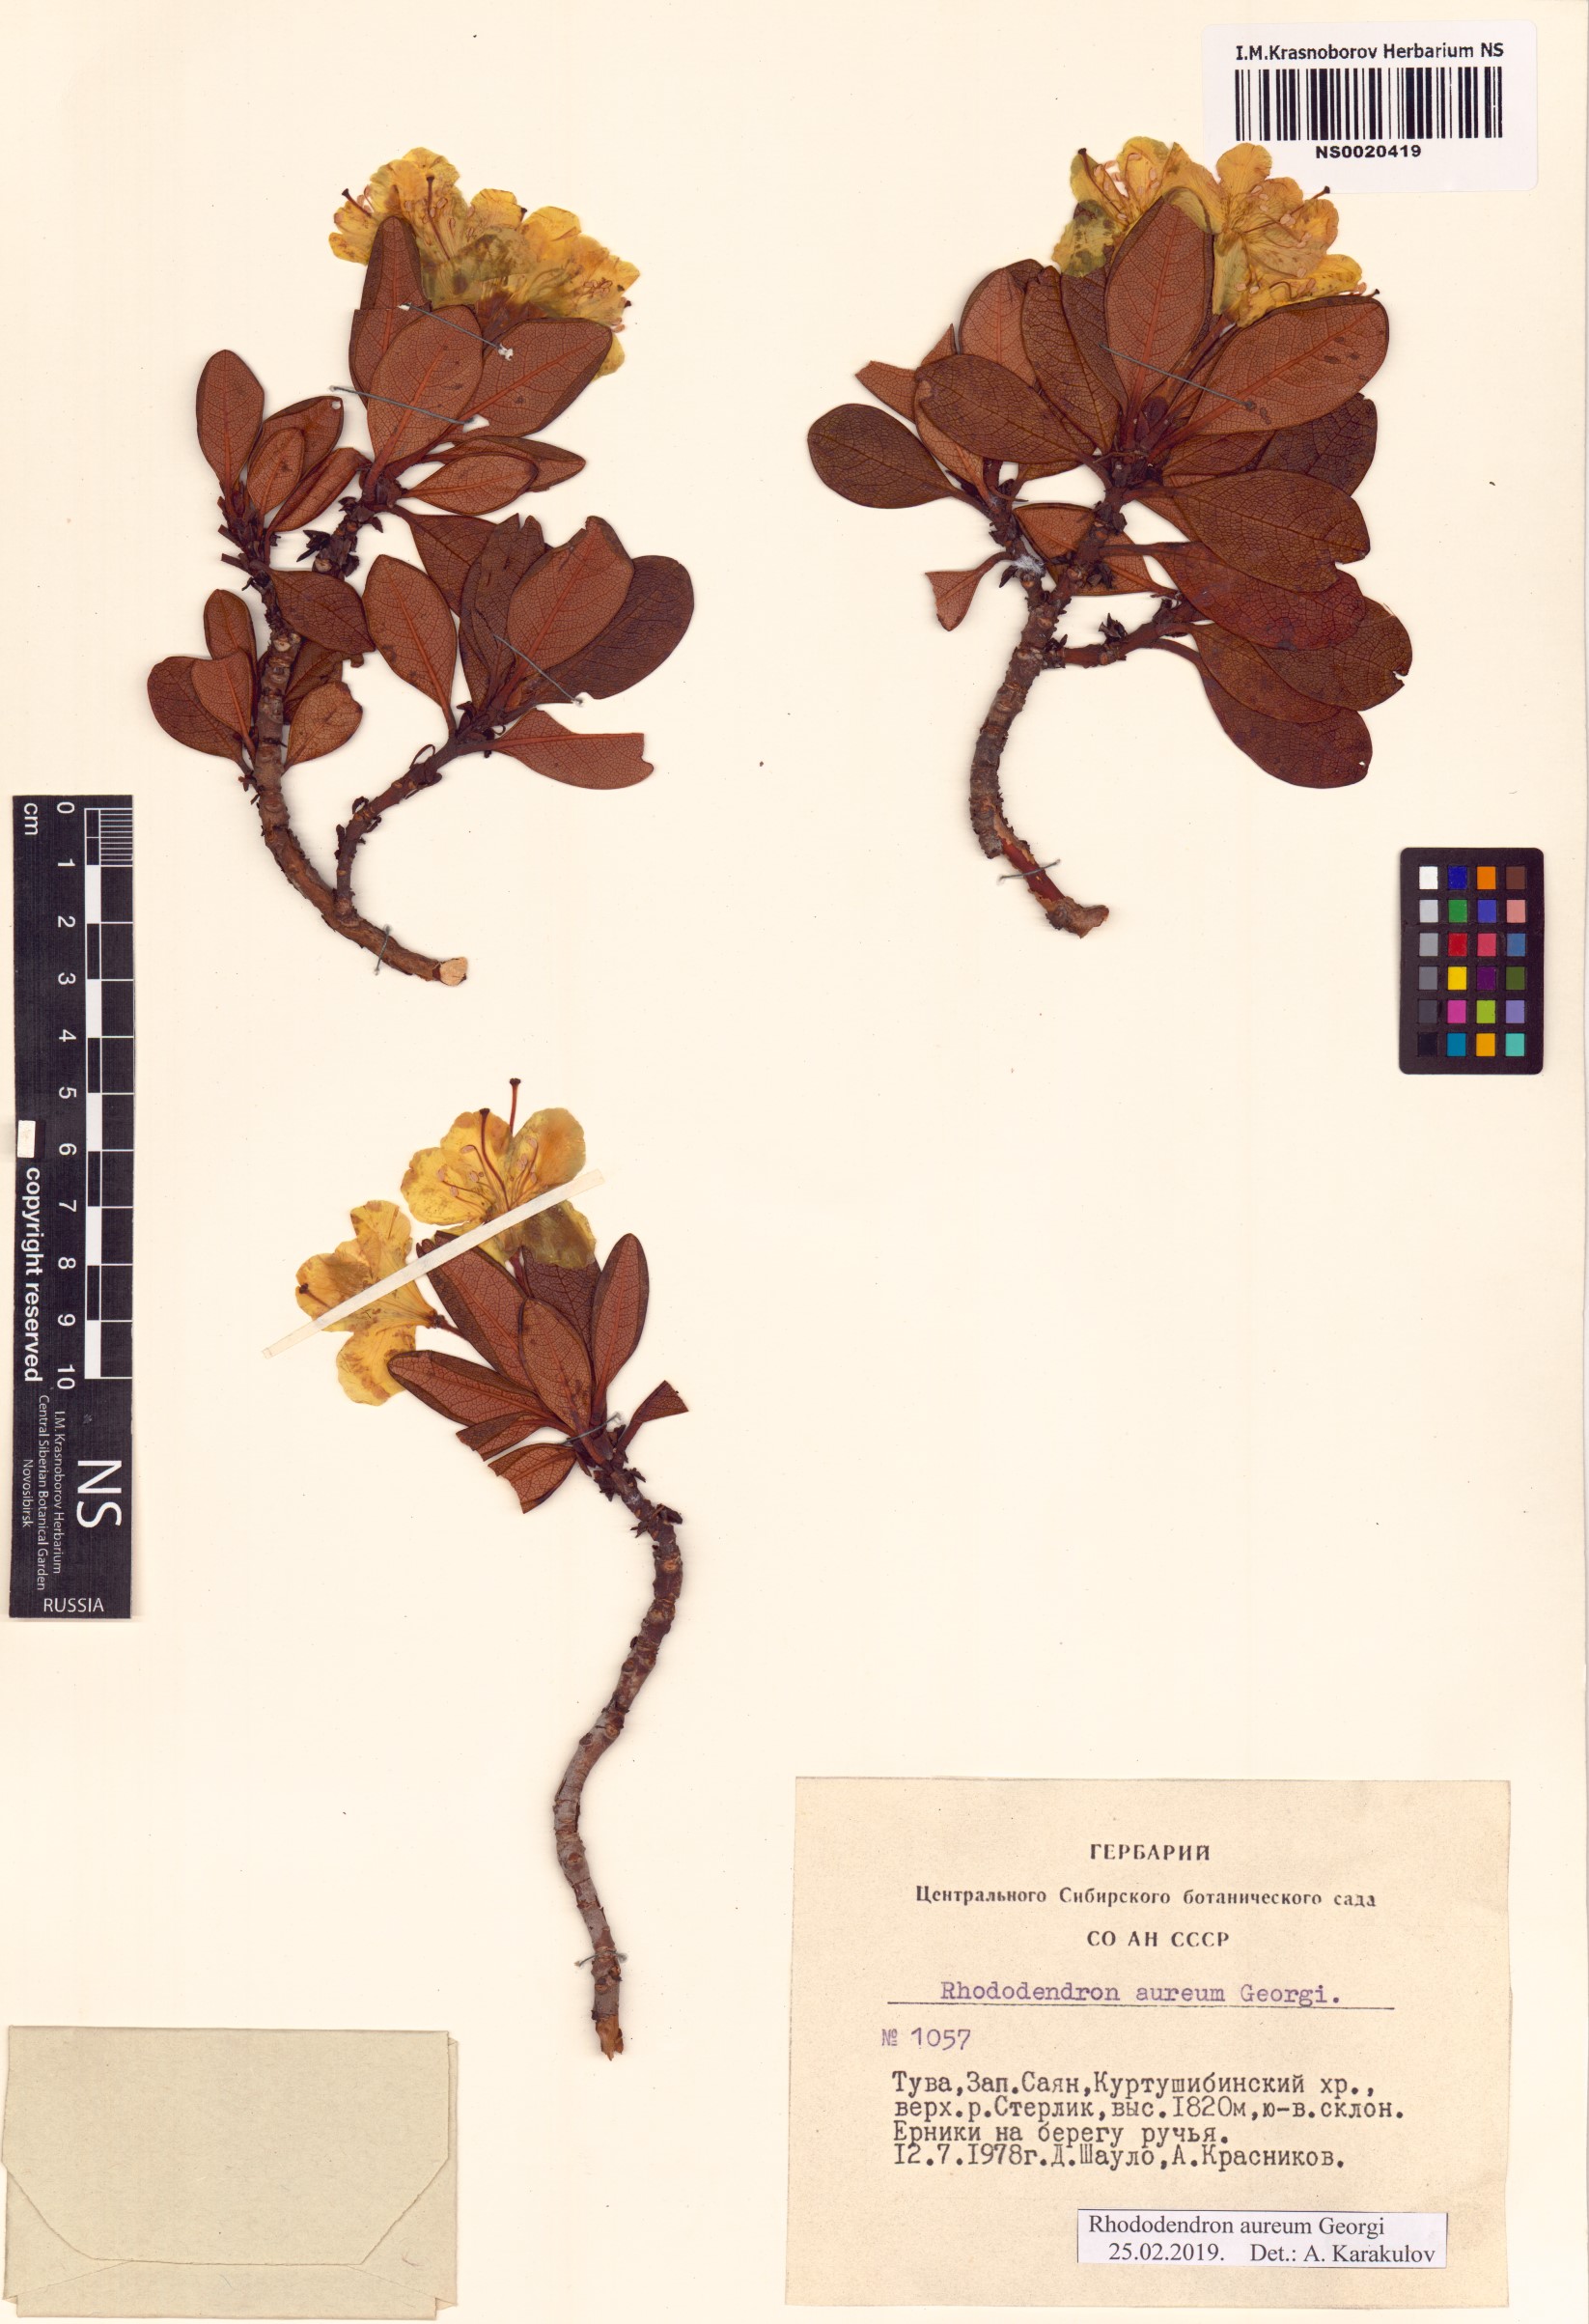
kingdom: Plantae
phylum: Tracheophyta
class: Magnoliopsida
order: Ericales
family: Ericaceae
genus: Rhododendron
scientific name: Rhododendron aureum
